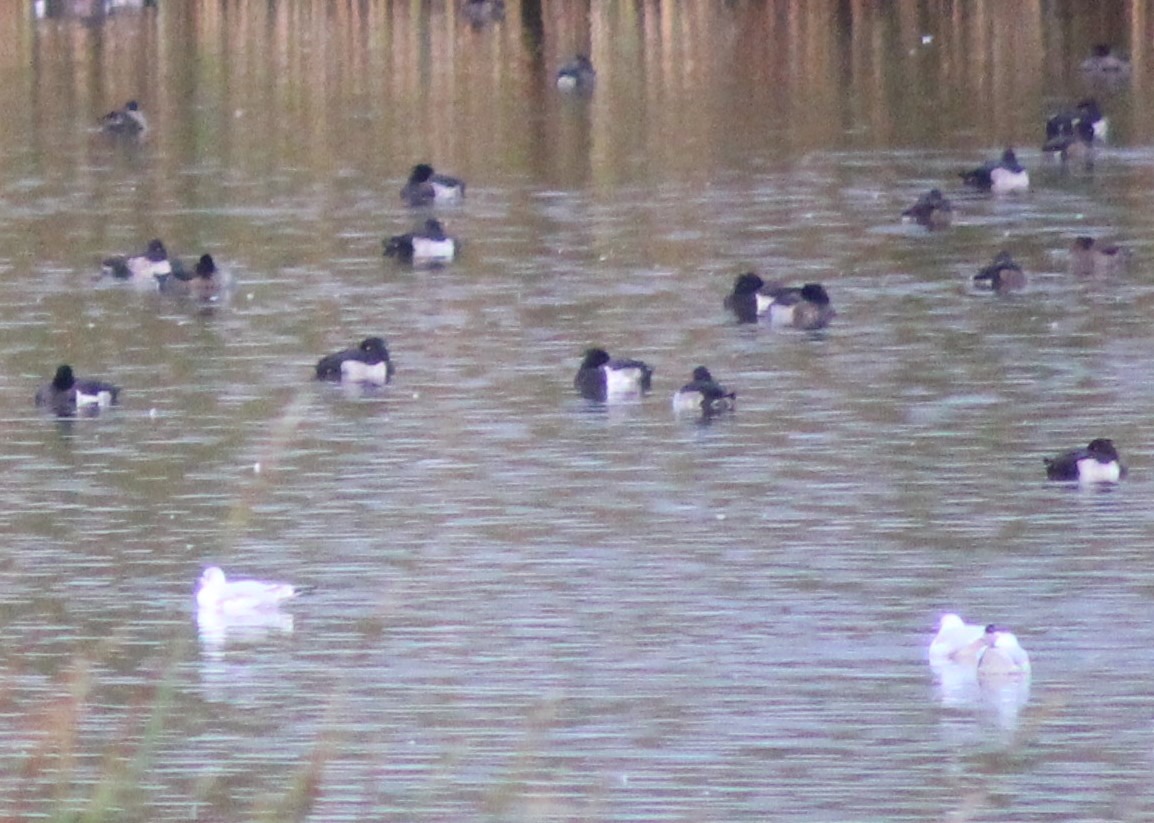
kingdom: Animalia
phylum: Chordata
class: Aves
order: Anseriformes
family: Anatidae
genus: Aythya
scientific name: Aythya fuligula
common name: Troldand
